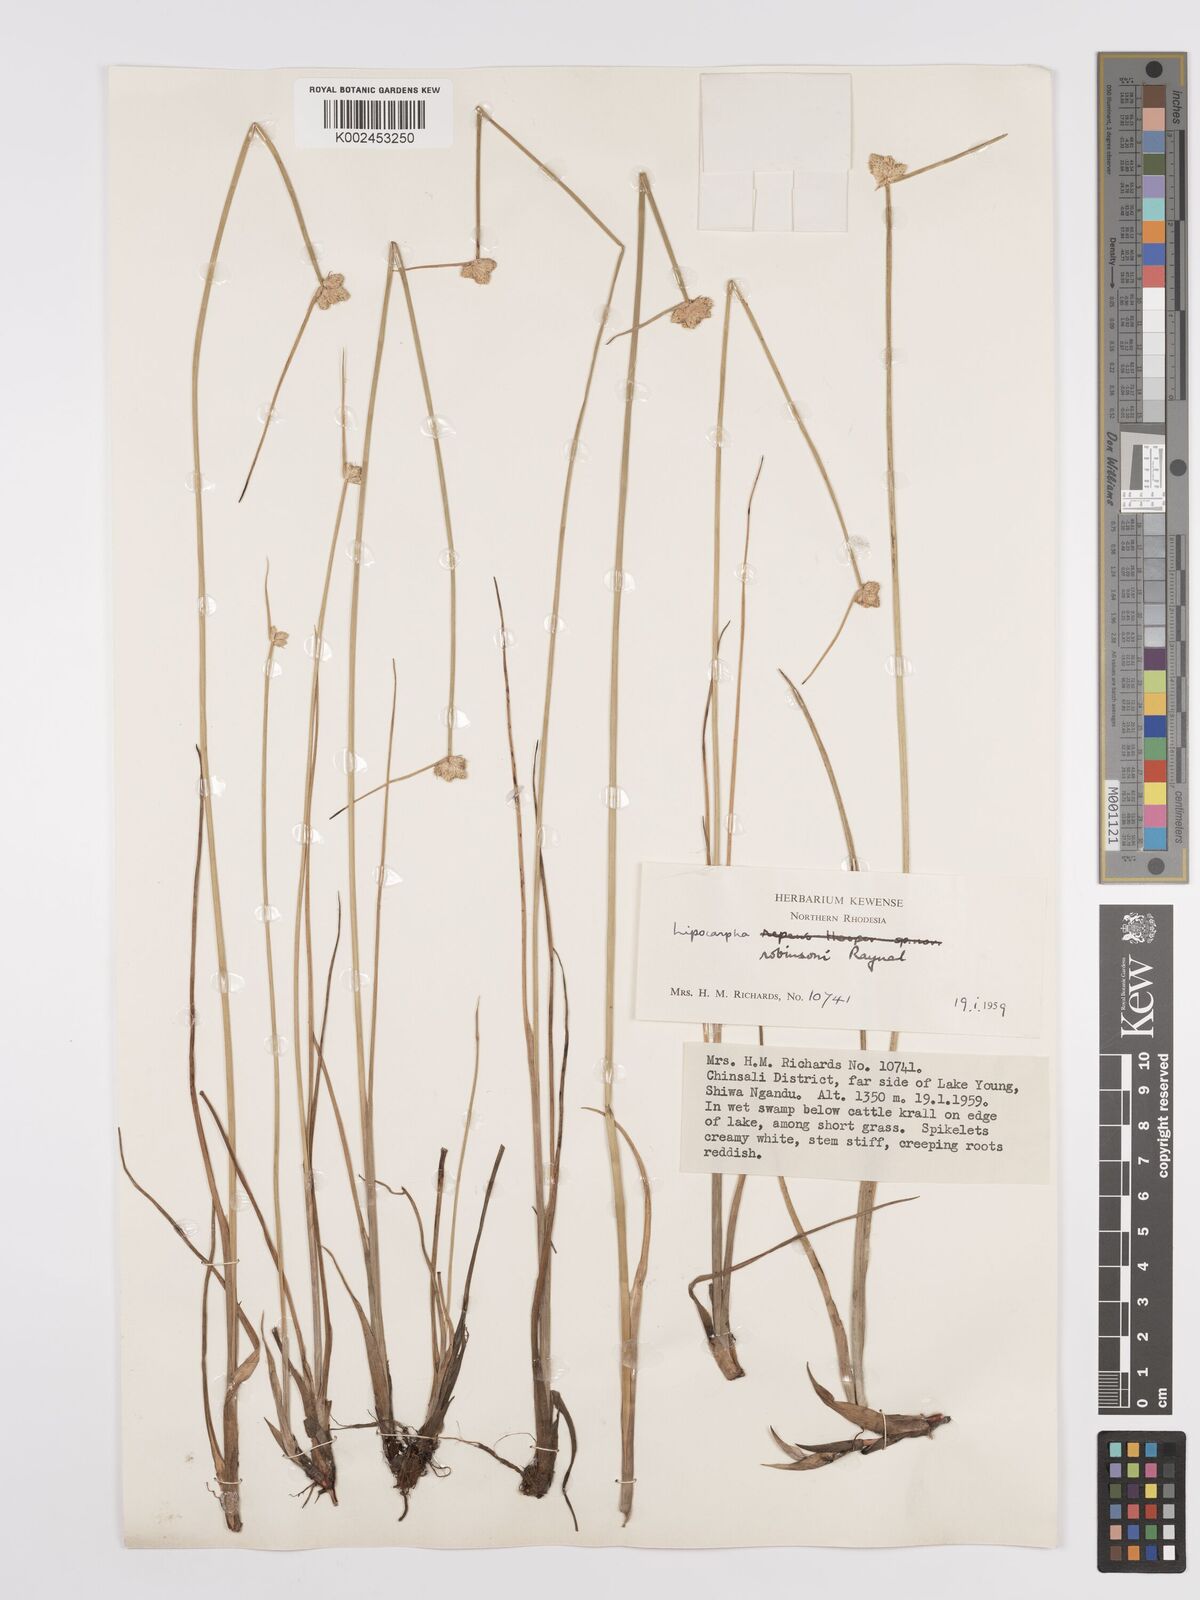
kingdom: Plantae
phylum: Tracheophyta
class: Liliopsida
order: Poales
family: Cyperaceae
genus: Cyperus
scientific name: Cyperus tenuiculmis
